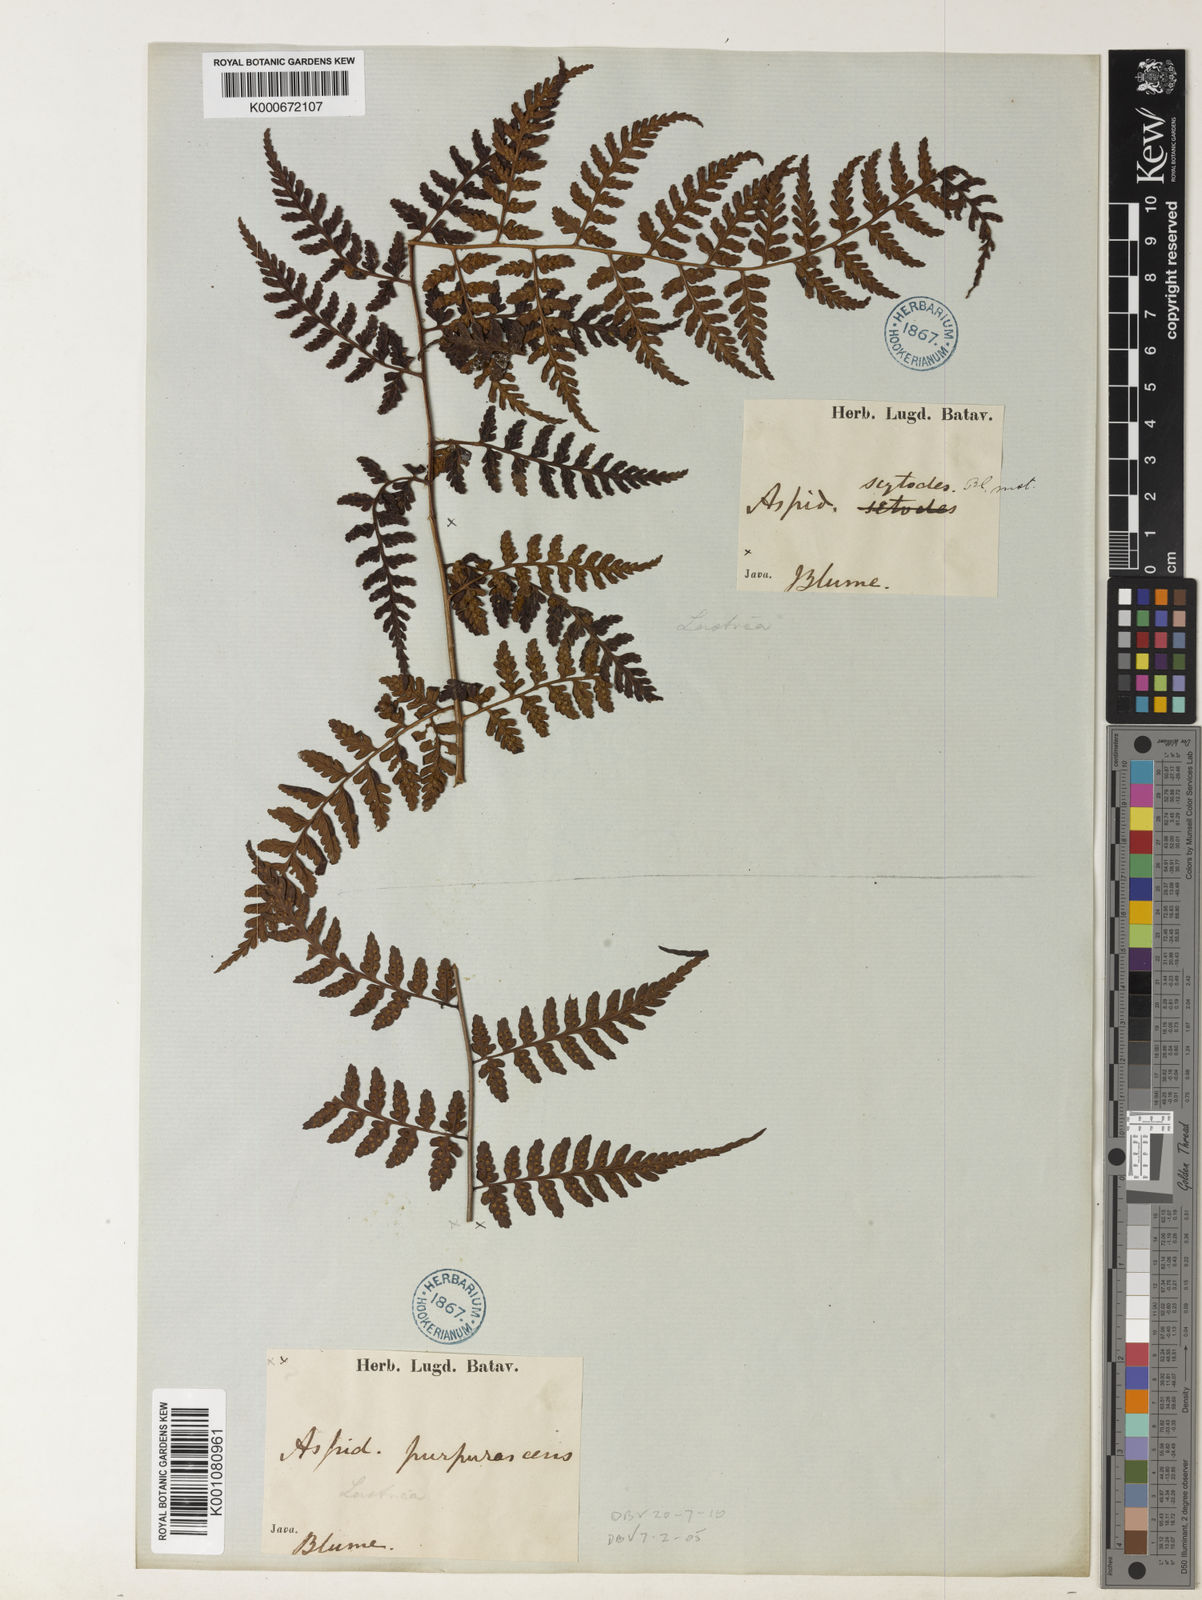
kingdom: Plantae
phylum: Tracheophyta
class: Polypodiopsida
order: Polypodiales
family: Dryopteridaceae
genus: Dryopteris
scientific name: Dryopteris purpurascens
